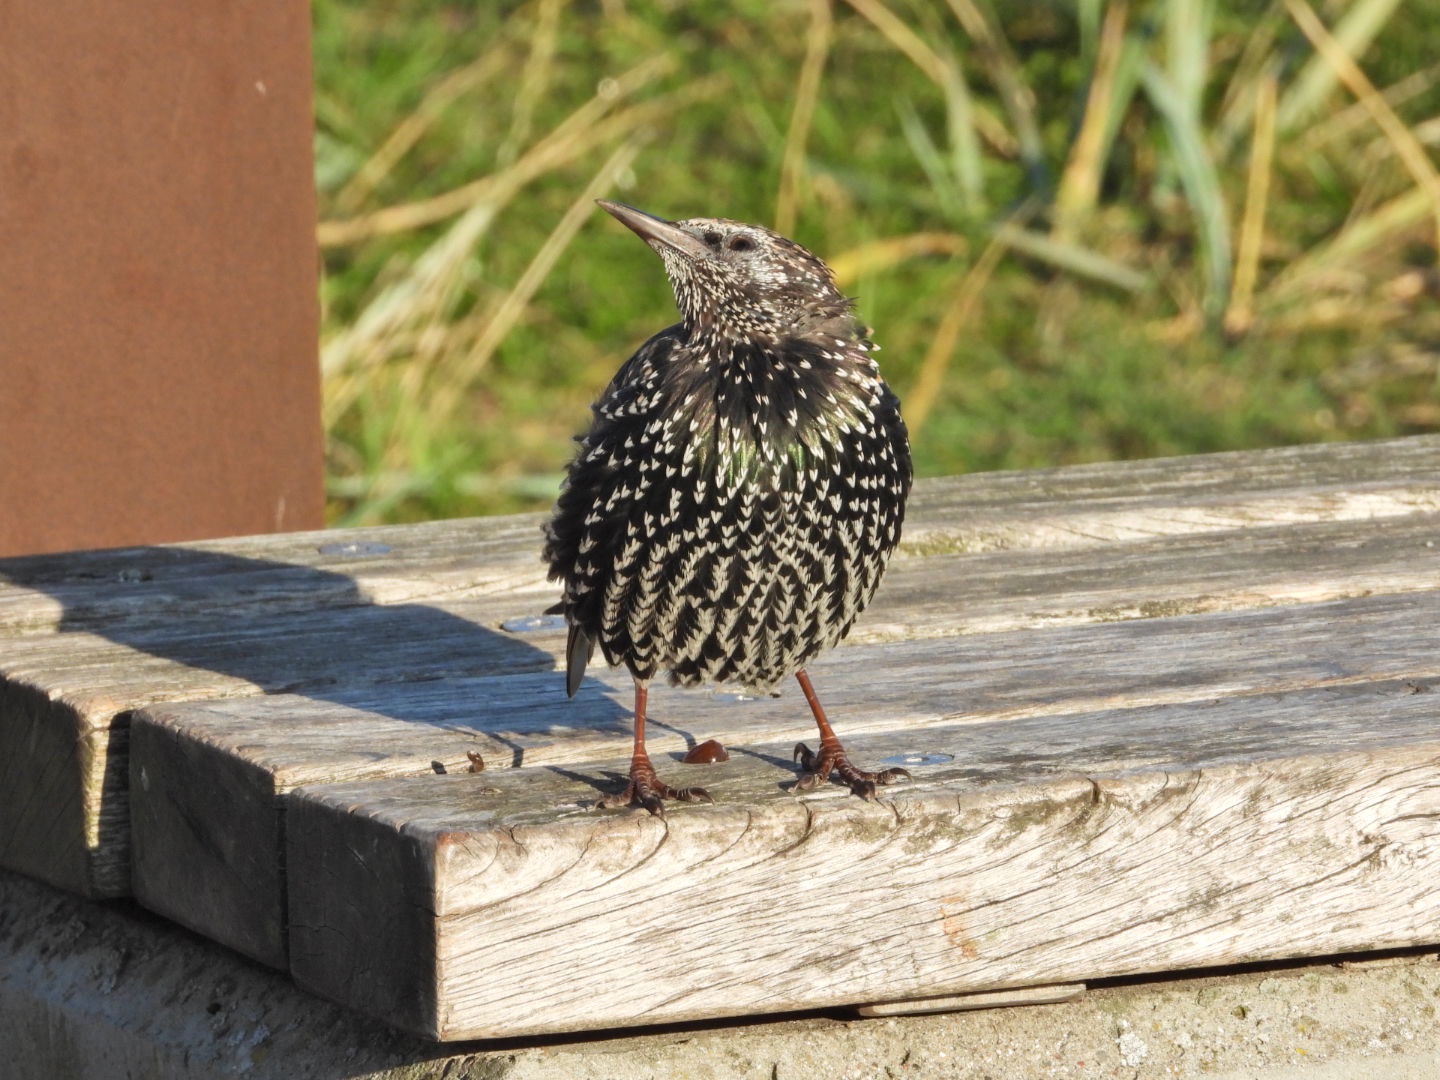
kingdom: Animalia
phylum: Chordata
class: Aves
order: Passeriformes
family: Sturnidae
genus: Sturnus
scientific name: Sturnus vulgaris
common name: Stær
